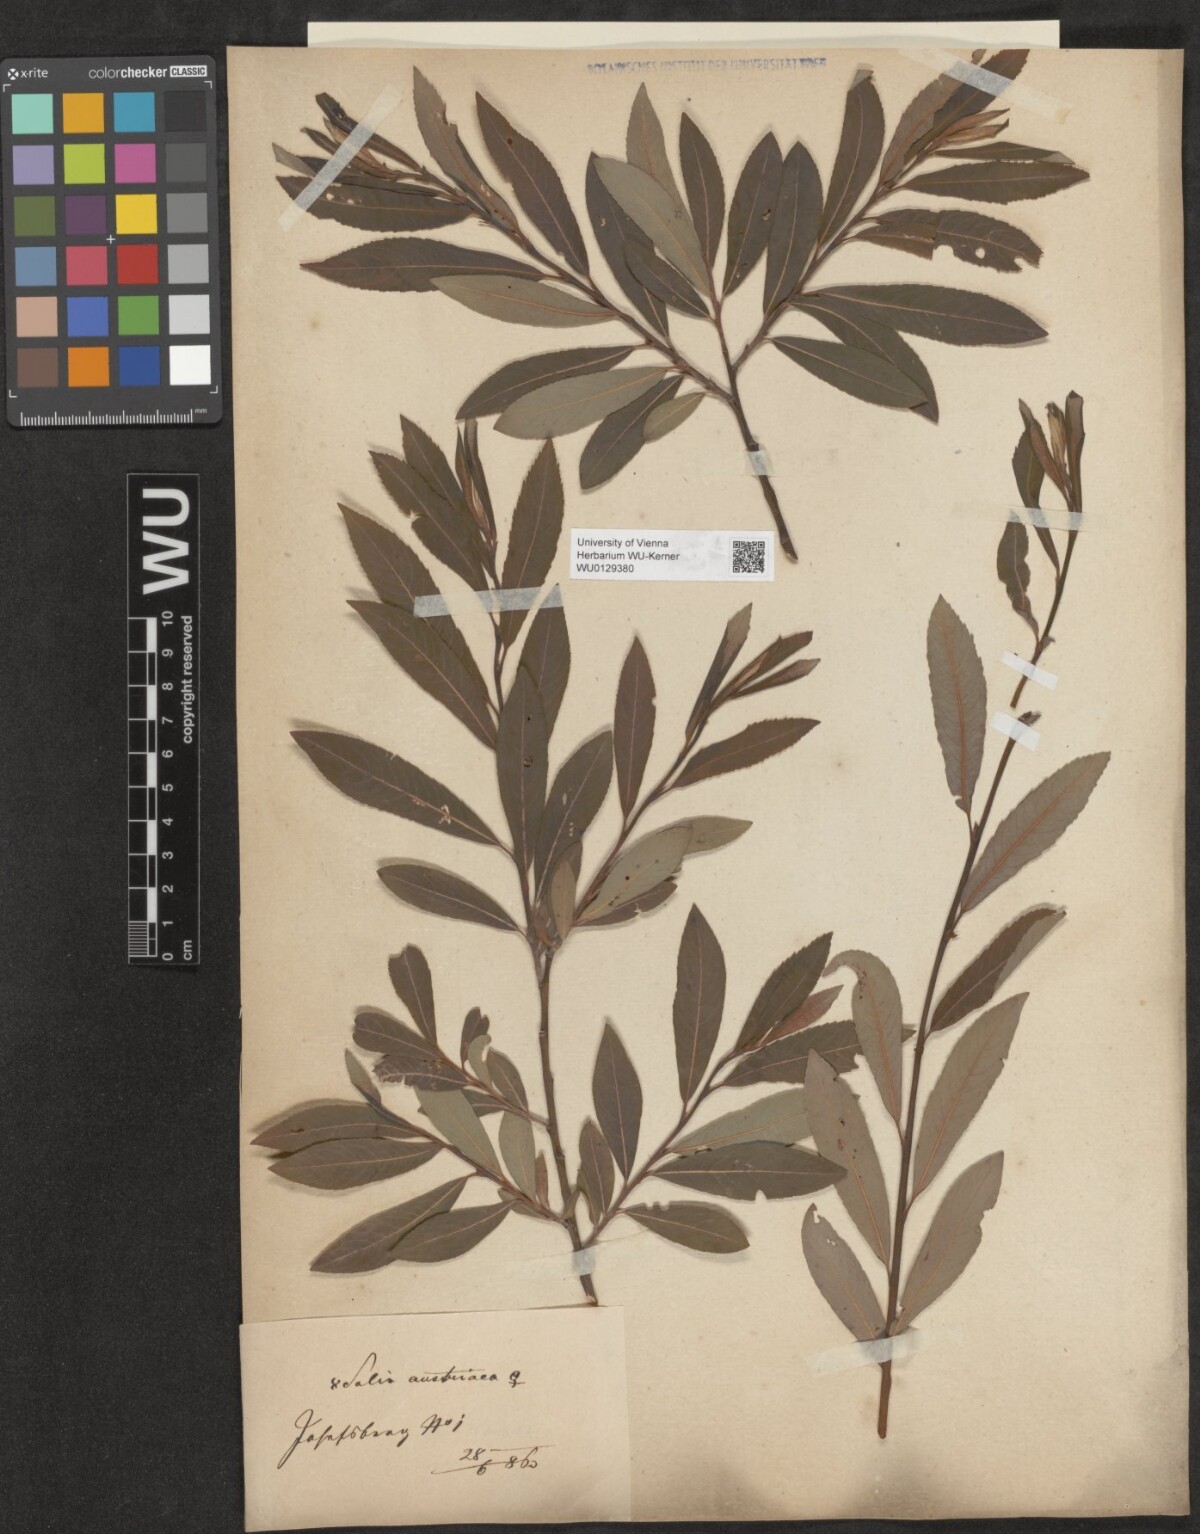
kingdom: Plantae
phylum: Tracheophyta
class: Magnoliopsida
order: Malpighiales
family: Salicaceae
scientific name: Salicaceae
